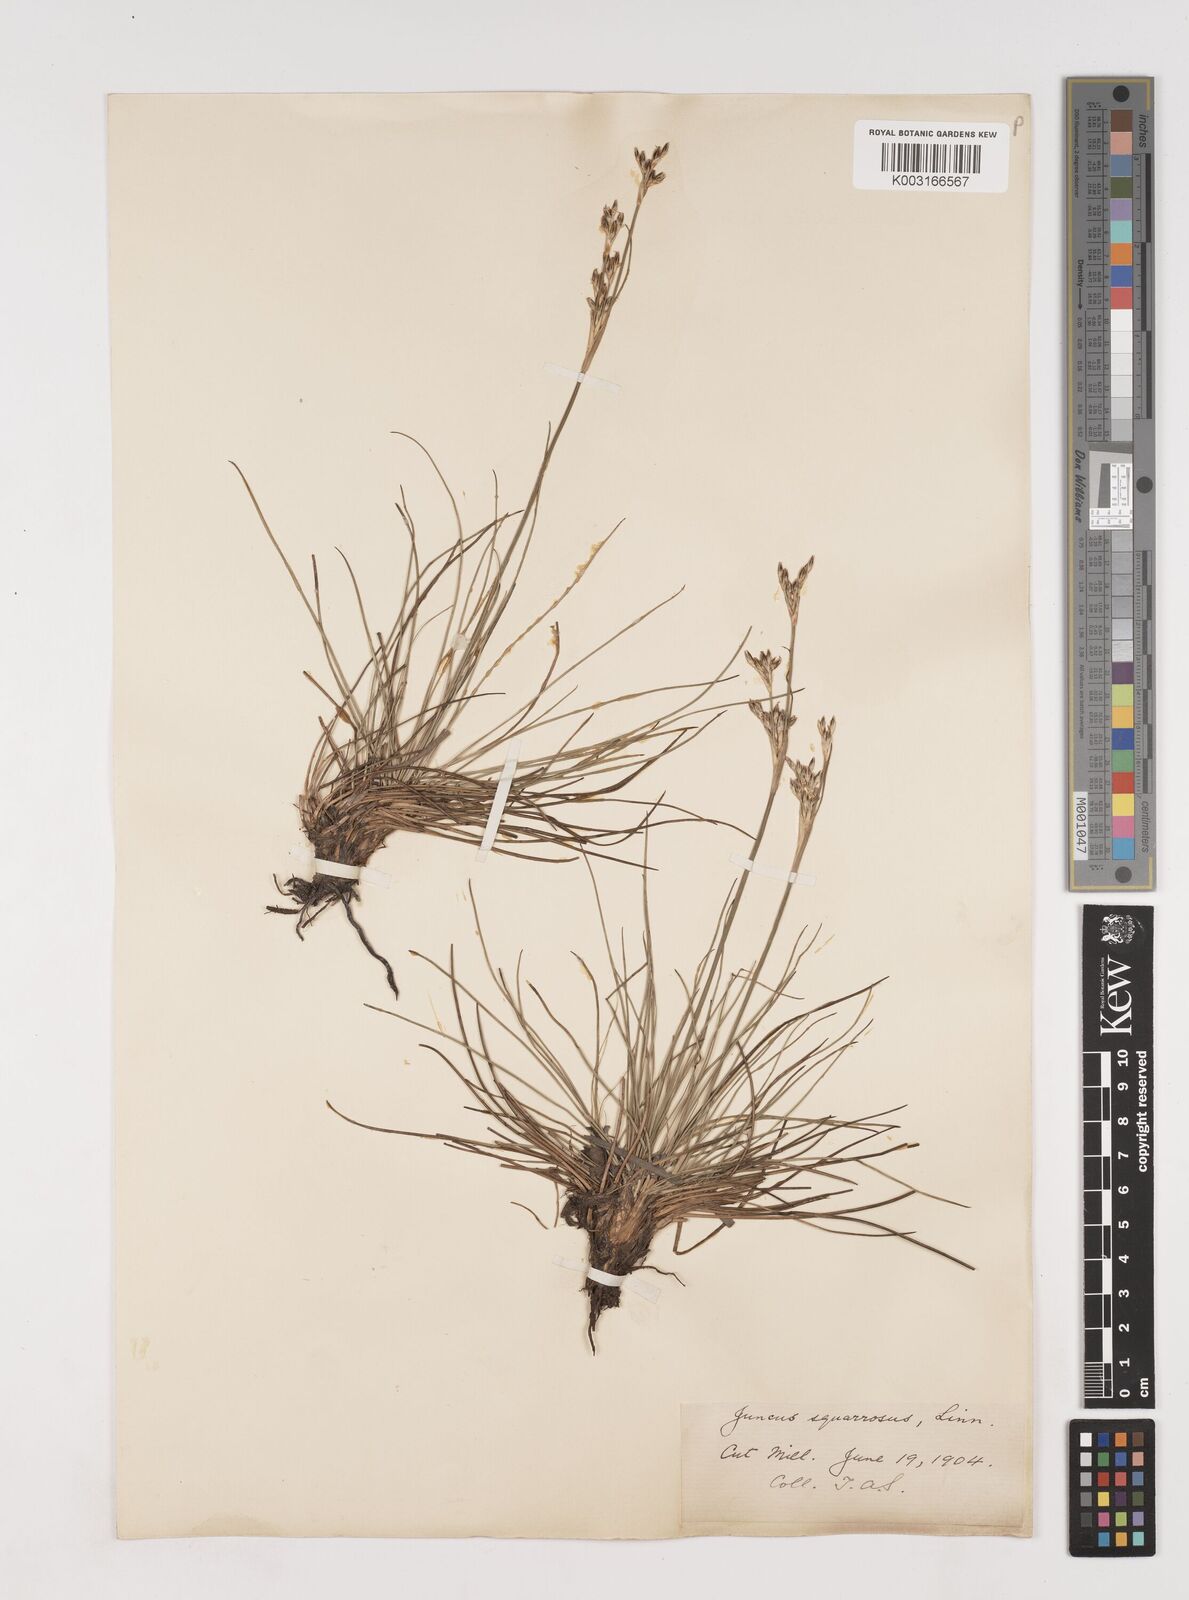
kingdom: Plantae
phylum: Tracheophyta
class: Liliopsida
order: Poales
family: Juncaceae
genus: Juncus
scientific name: Juncus squarrosus
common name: Heath rush
